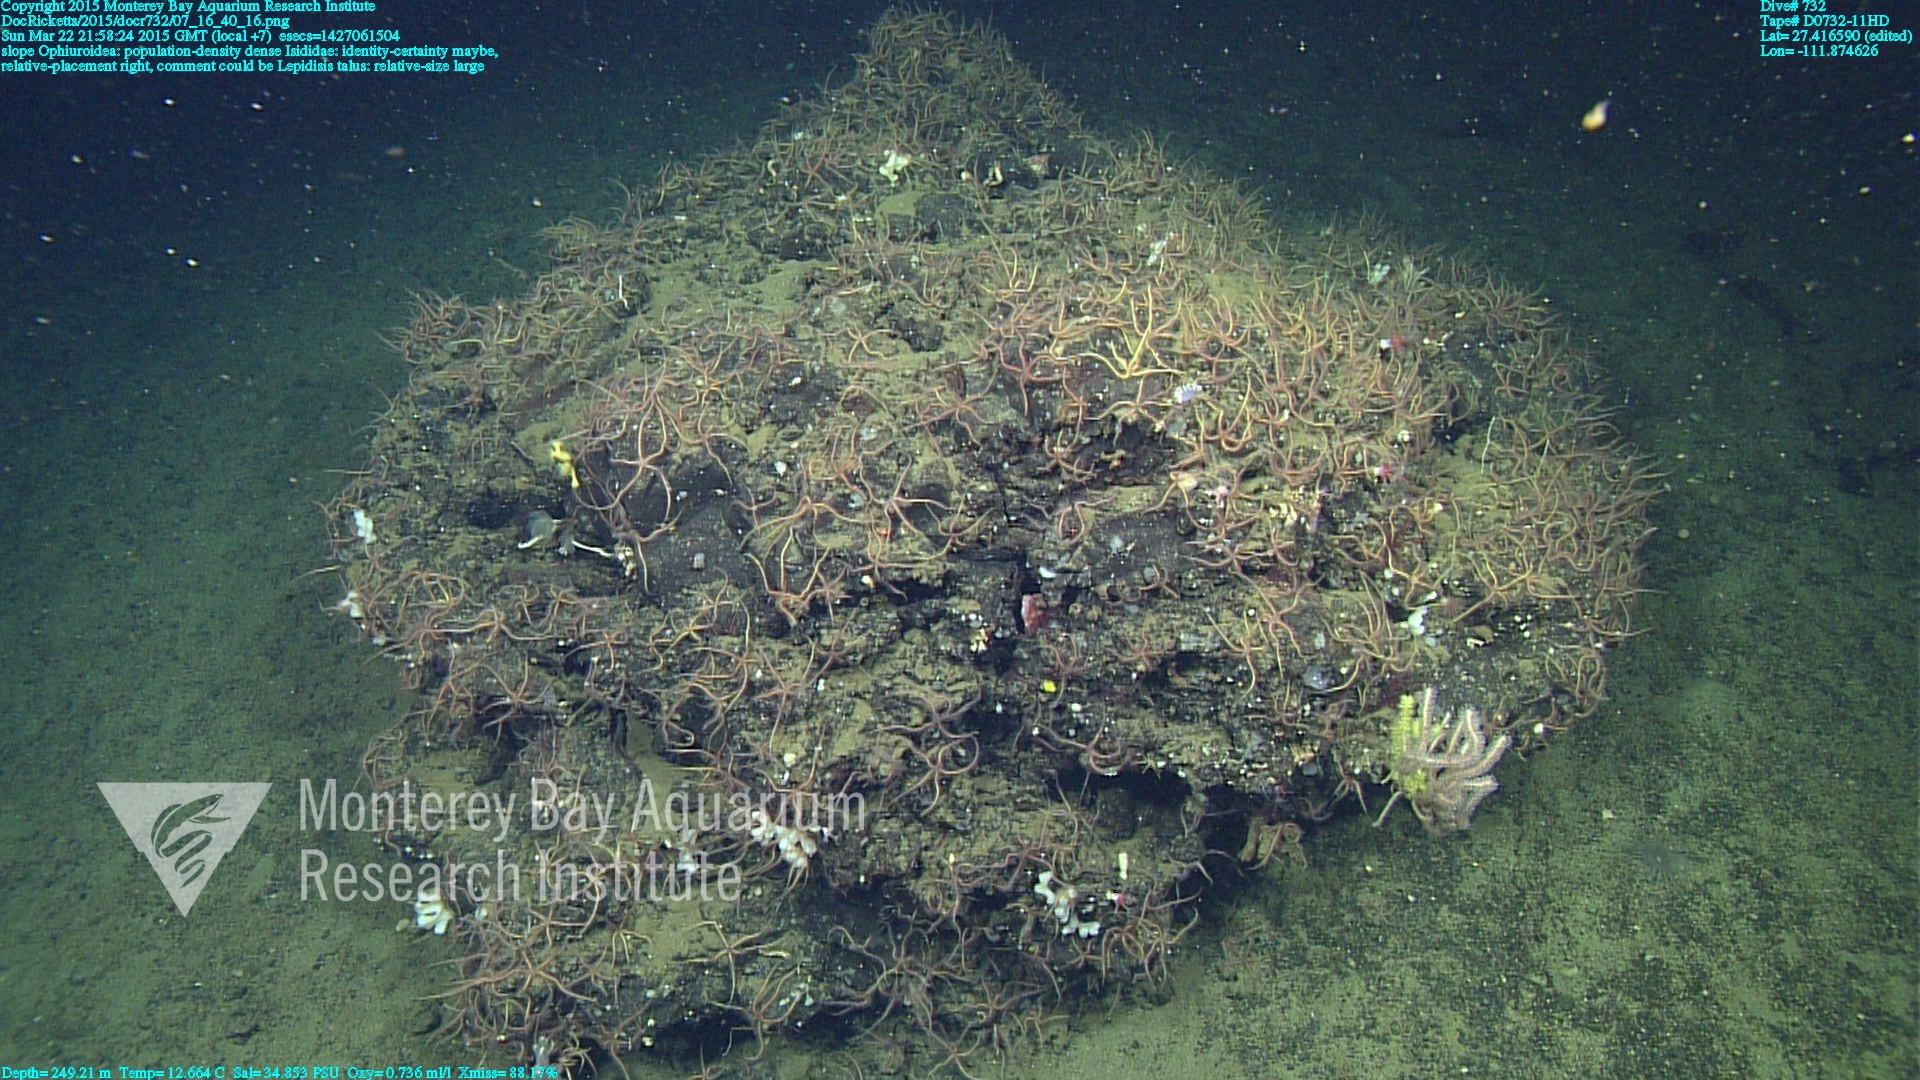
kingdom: Animalia
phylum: Cnidaria
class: Anthozoa
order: Scleralcyonacea
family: Keratoisididae
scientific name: Keratoisididae
